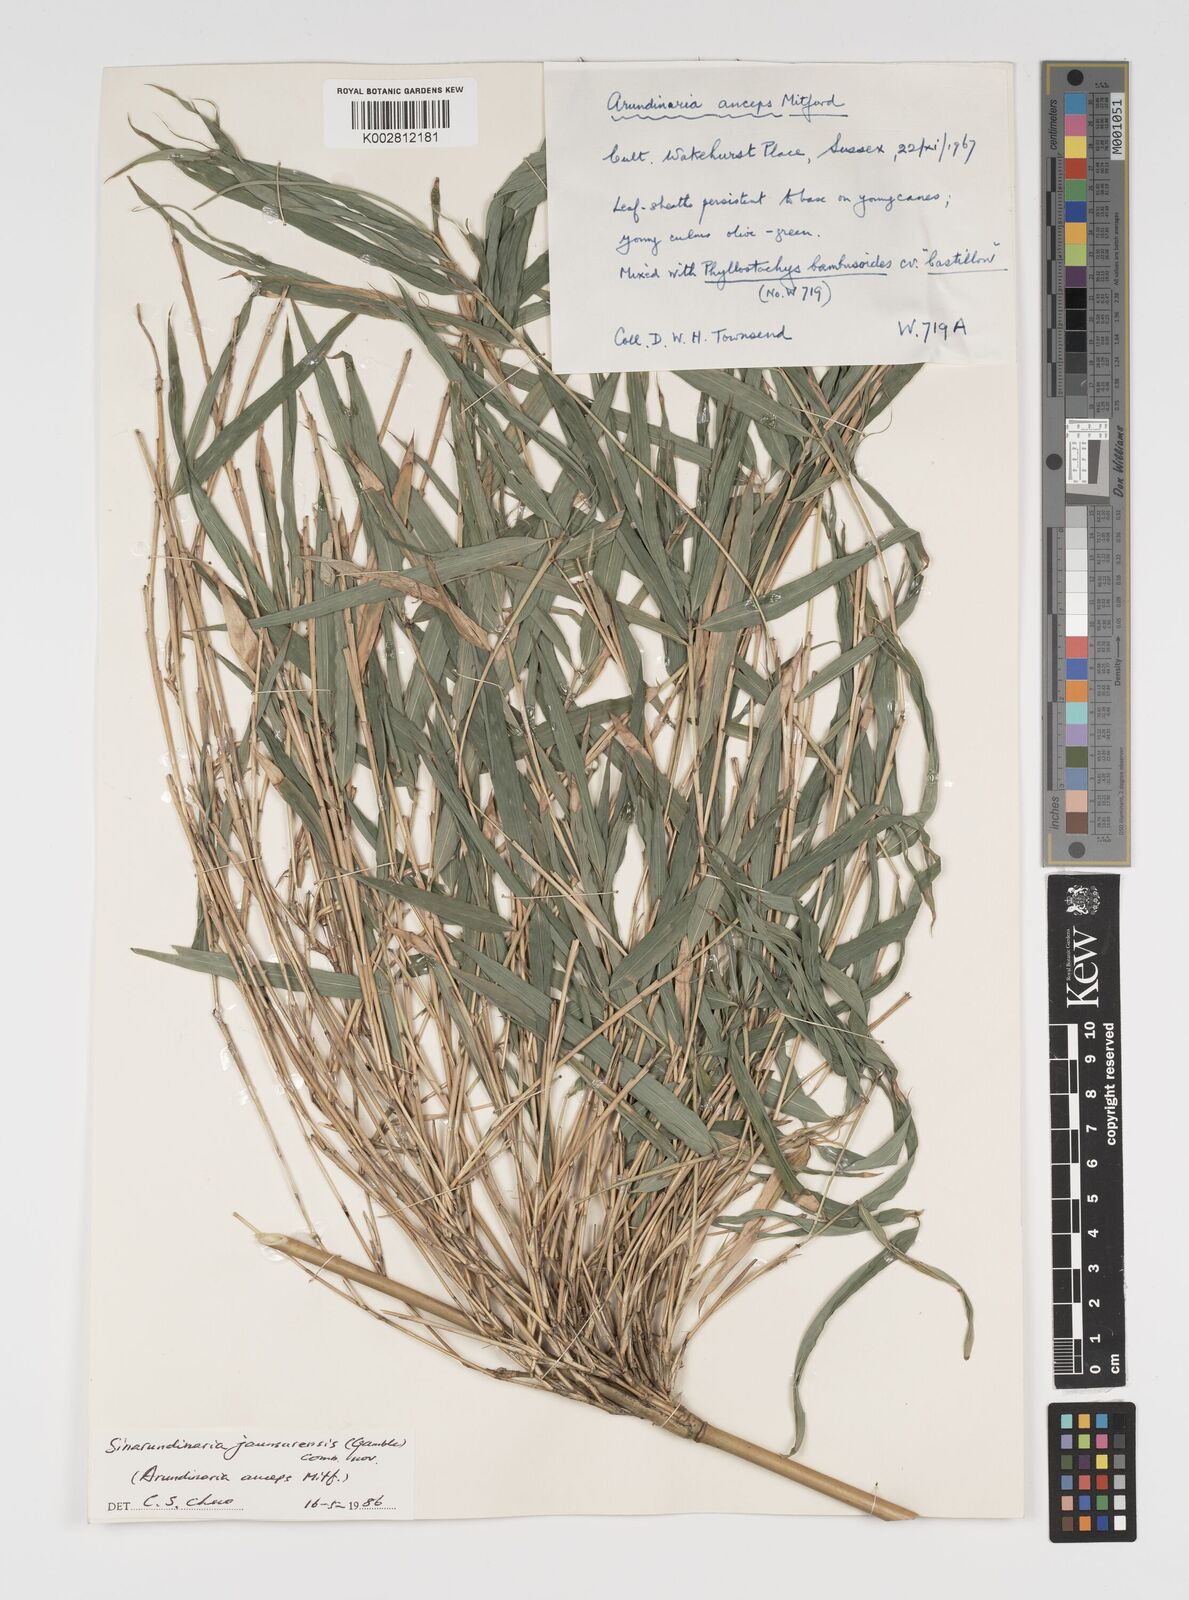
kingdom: Plantae
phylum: Tracheophyta
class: Liliopsida
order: Poales
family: Poaceae
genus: Yushania
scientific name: Yushania anceps
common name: Indian fountain-bamboo
